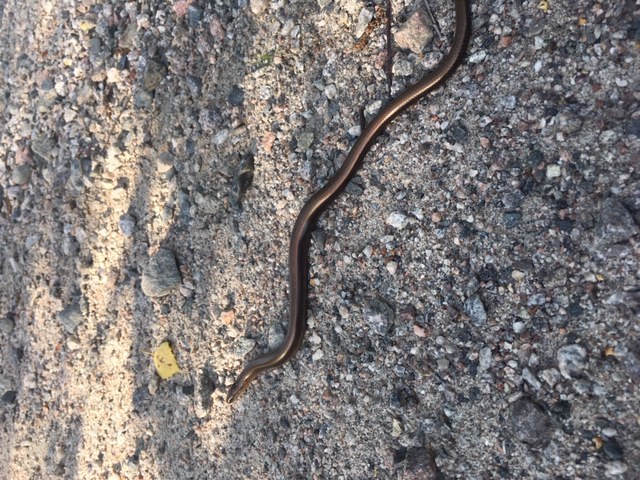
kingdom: Animalia
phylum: Chordata
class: Squamata
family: Anguidae
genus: Anguis
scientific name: Anguis colchica
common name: Slow worm
